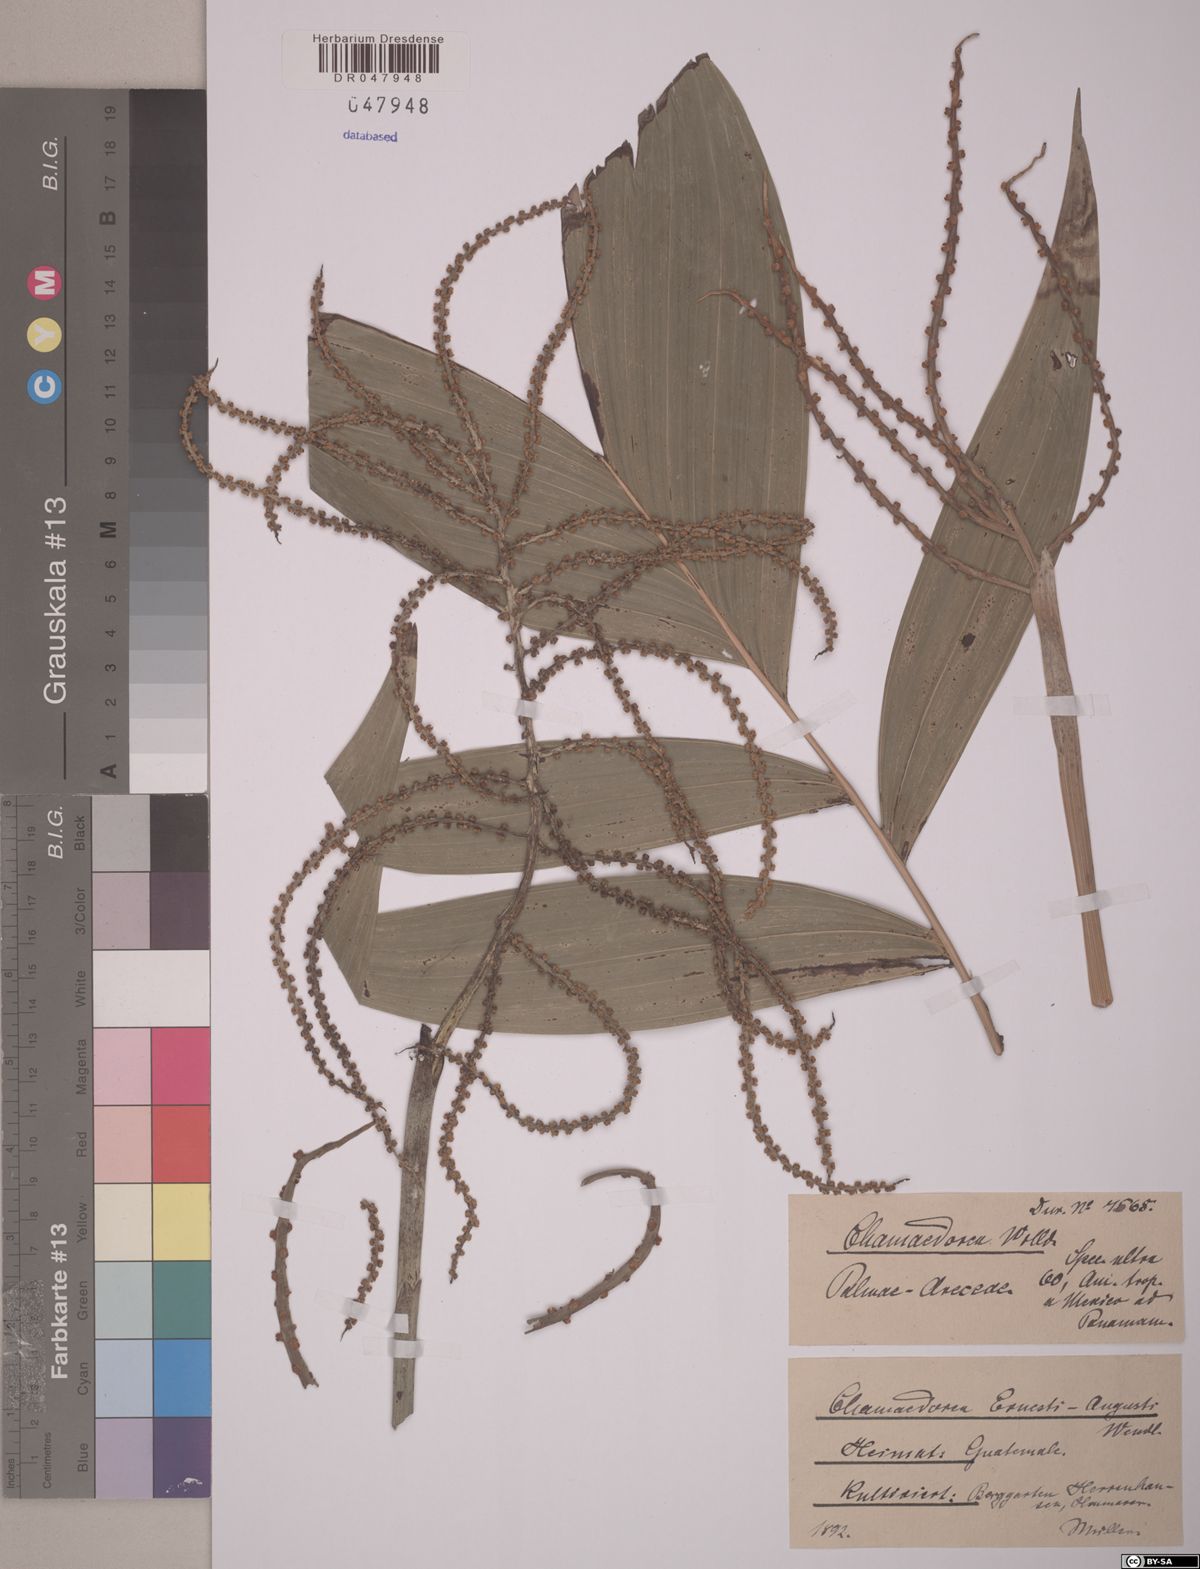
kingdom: Plantae
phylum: Tracheophyta
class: Liliopsida
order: Arecales
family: Arecaceae
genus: Chamaedorea
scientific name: Chamaedorea ernesti-augusti
